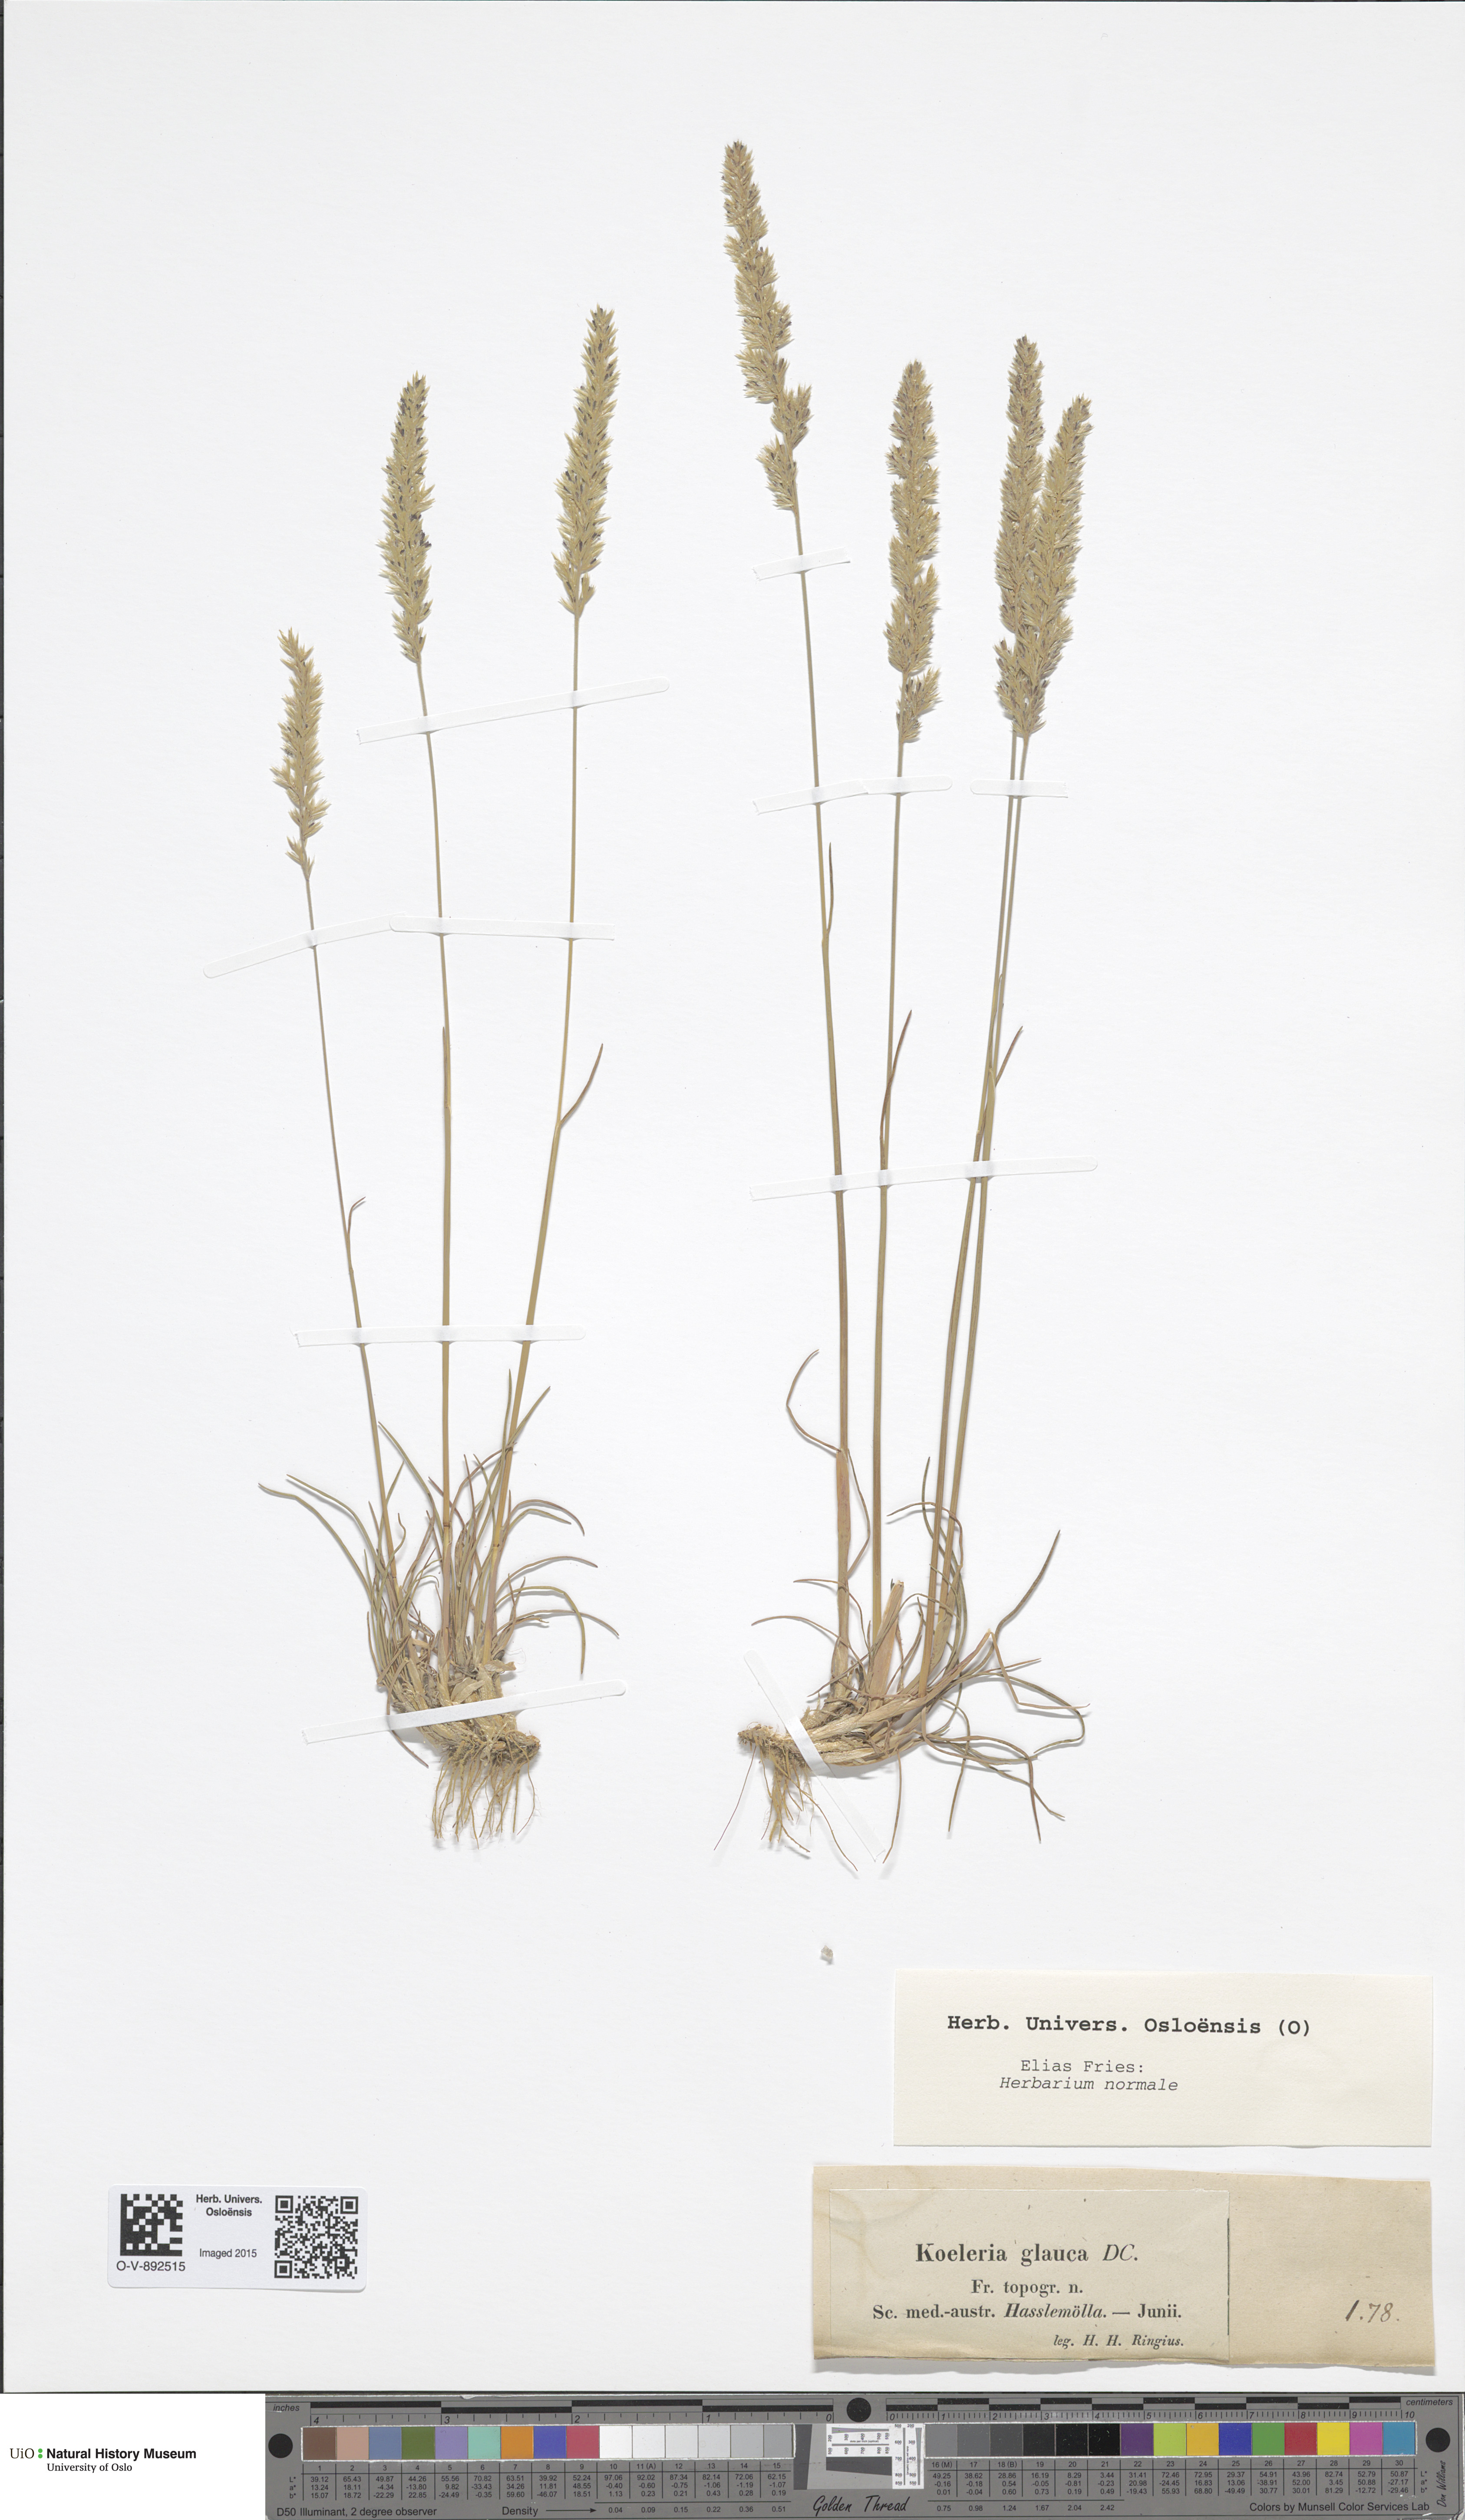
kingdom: Plantae
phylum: Tracheophyta
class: Liliopsida
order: Poales
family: Poaceae
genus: Koeleria
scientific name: Koeleria glauca
